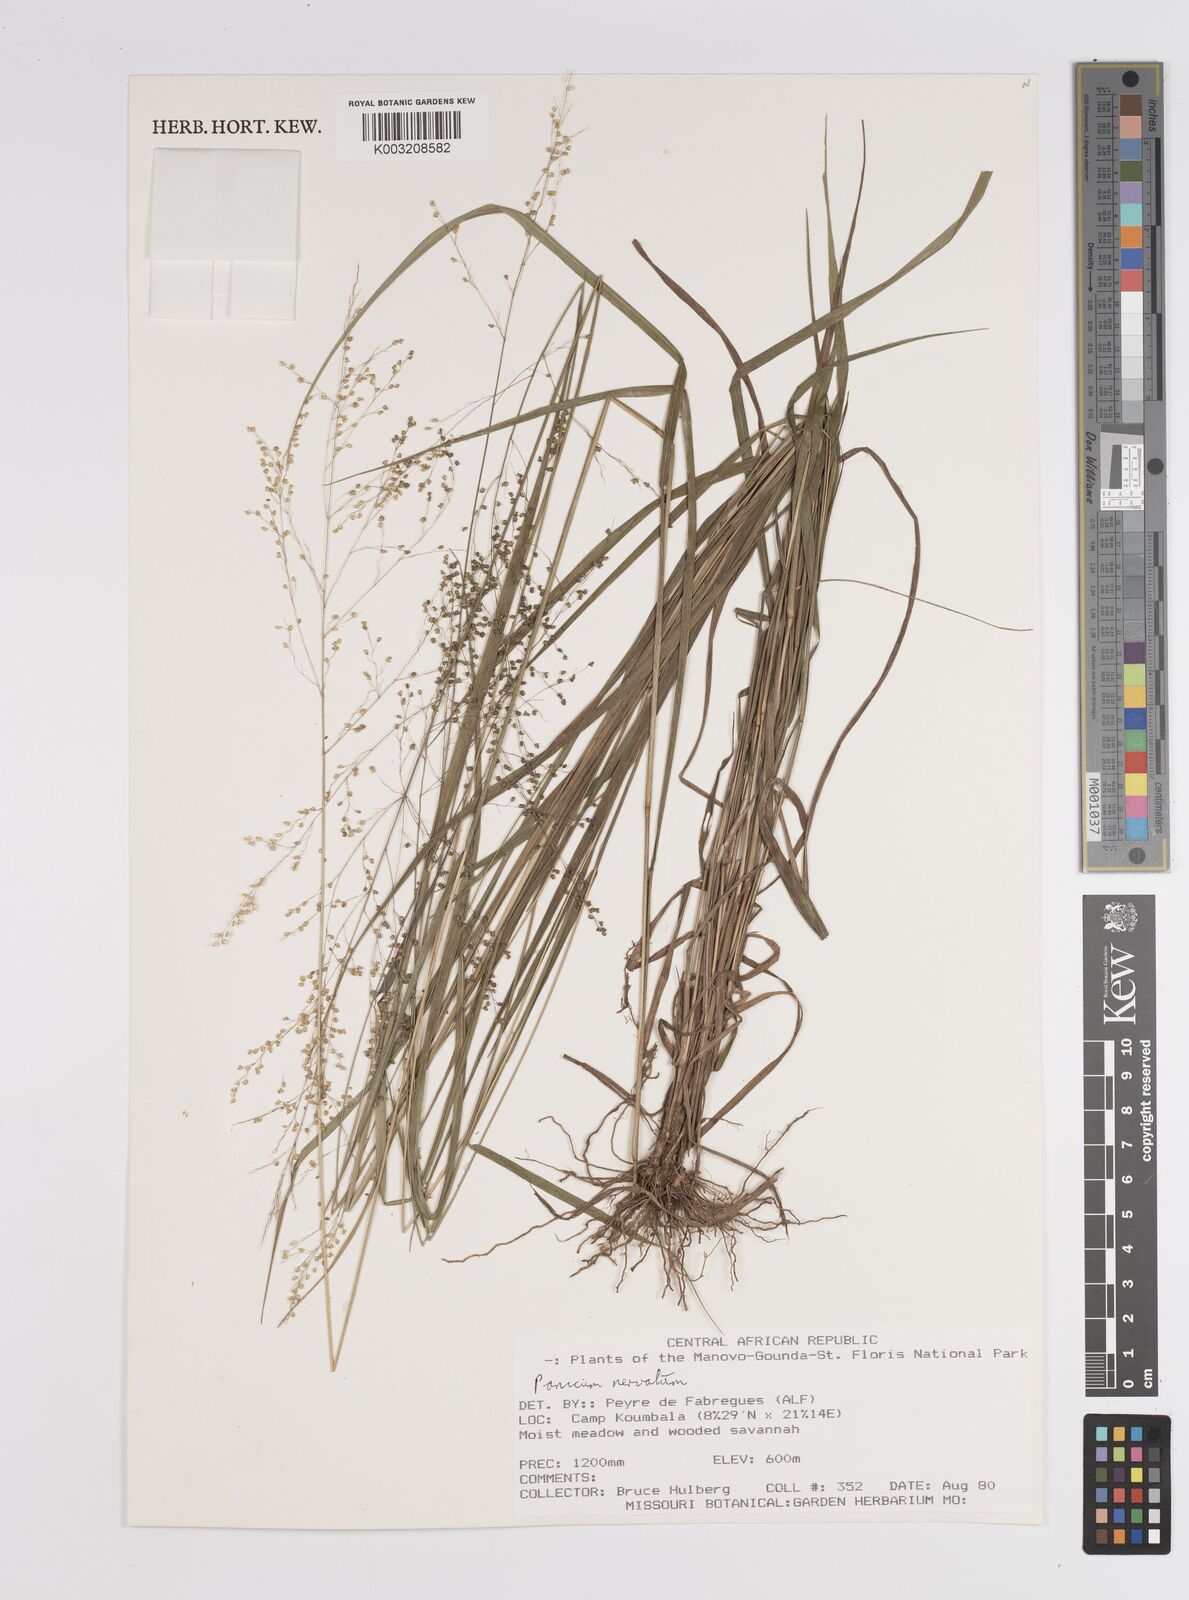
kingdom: Plantae
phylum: Tracheophyta
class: Liliopsida
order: Poales
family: Poaceae
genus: Trichanthecium
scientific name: Trichanthecium nervatum
